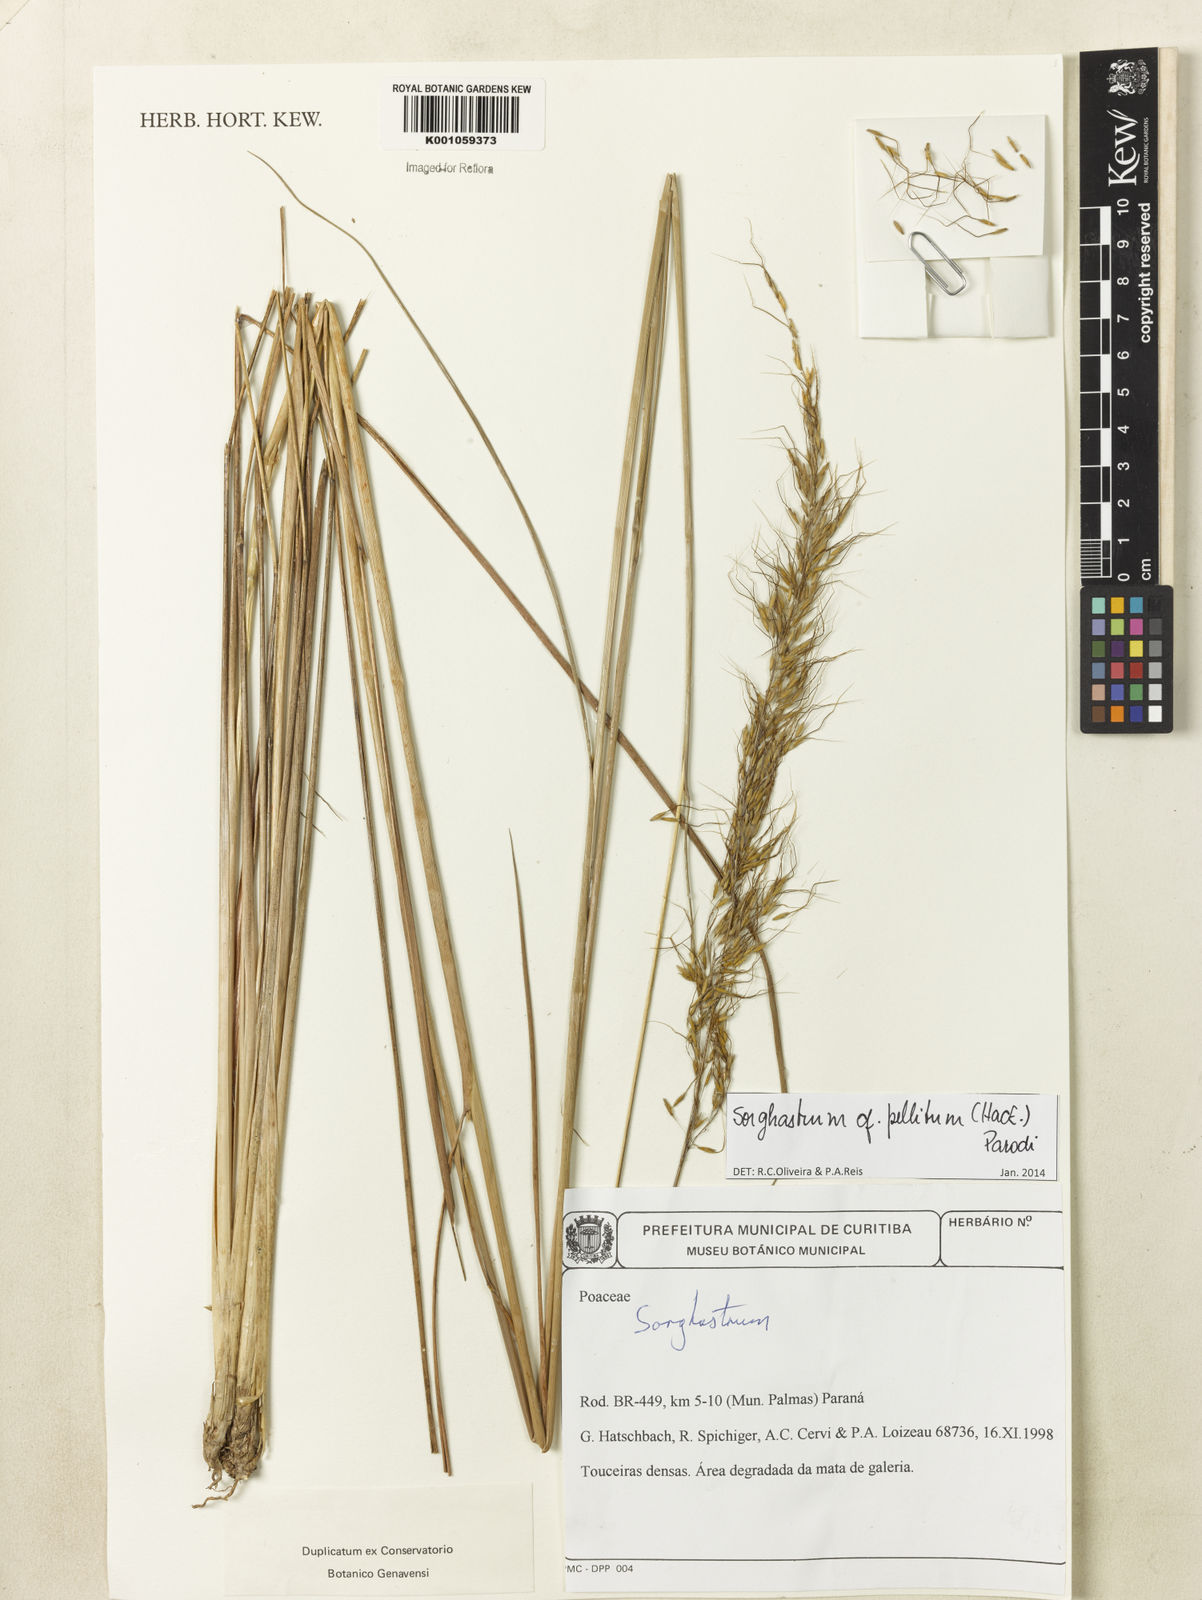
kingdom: Plantae
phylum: Tracheophyta
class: Liliopsida
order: Poales
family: Poaceae
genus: Sorghastrum
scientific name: Sorghastrum pellitum
